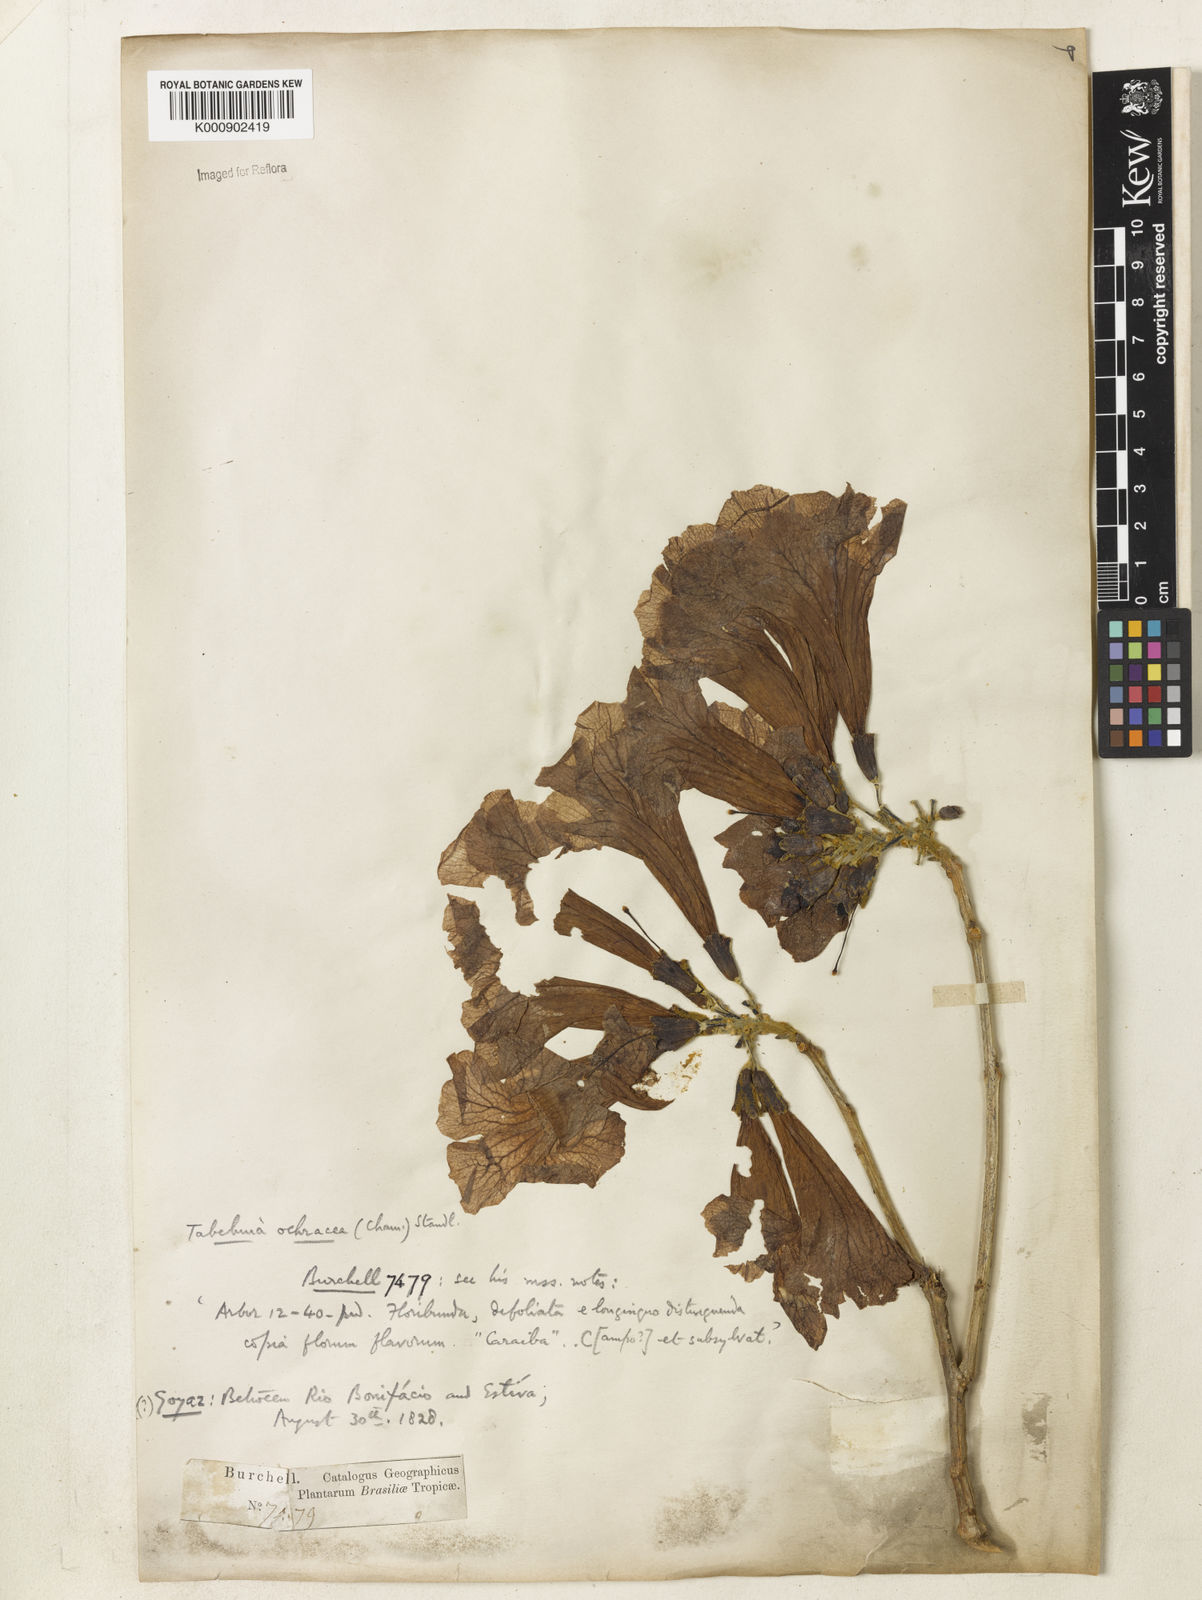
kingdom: Plantae
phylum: Tracheophyta
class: Magnoliopsida
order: Lamiales
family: Bignoniaceae
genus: Handroanthus
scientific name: Handroanthus ochraceus
